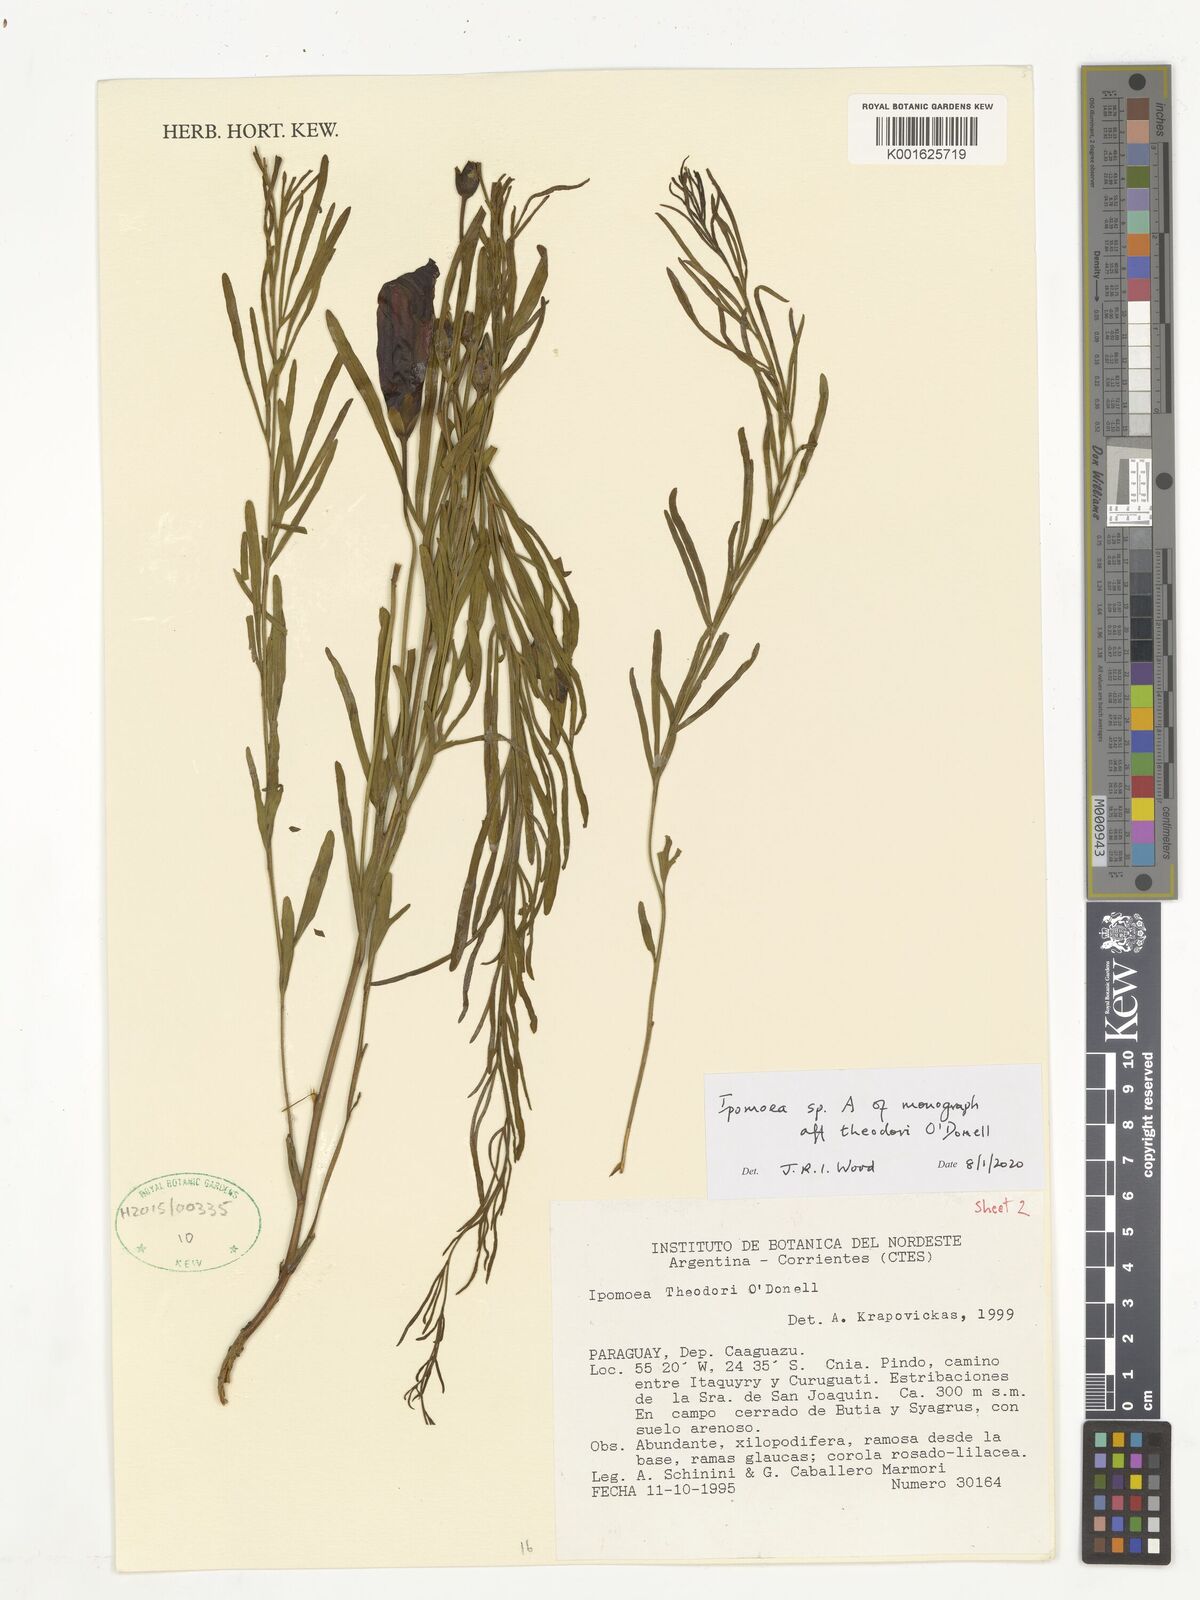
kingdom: Plantae
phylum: Tracheophyta
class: Magnoliopsida
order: Solanales
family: Convolvulaceae
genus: Ipomoea
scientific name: Ipomoea theodori
